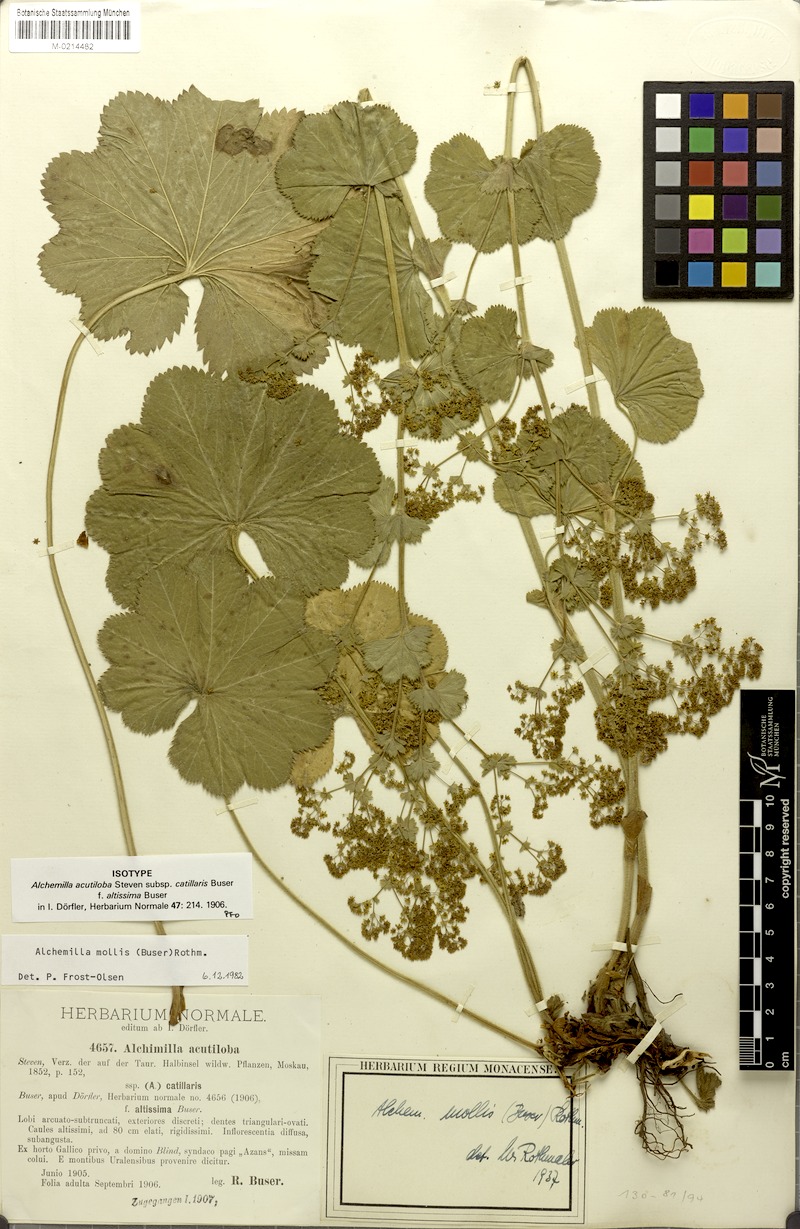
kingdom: Plantae
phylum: Tracheophyta
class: Magnoliopsida
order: Rosales
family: Rosaceae
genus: Alchemilla
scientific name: Alchemilla mollis
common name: Lady's-mantle
